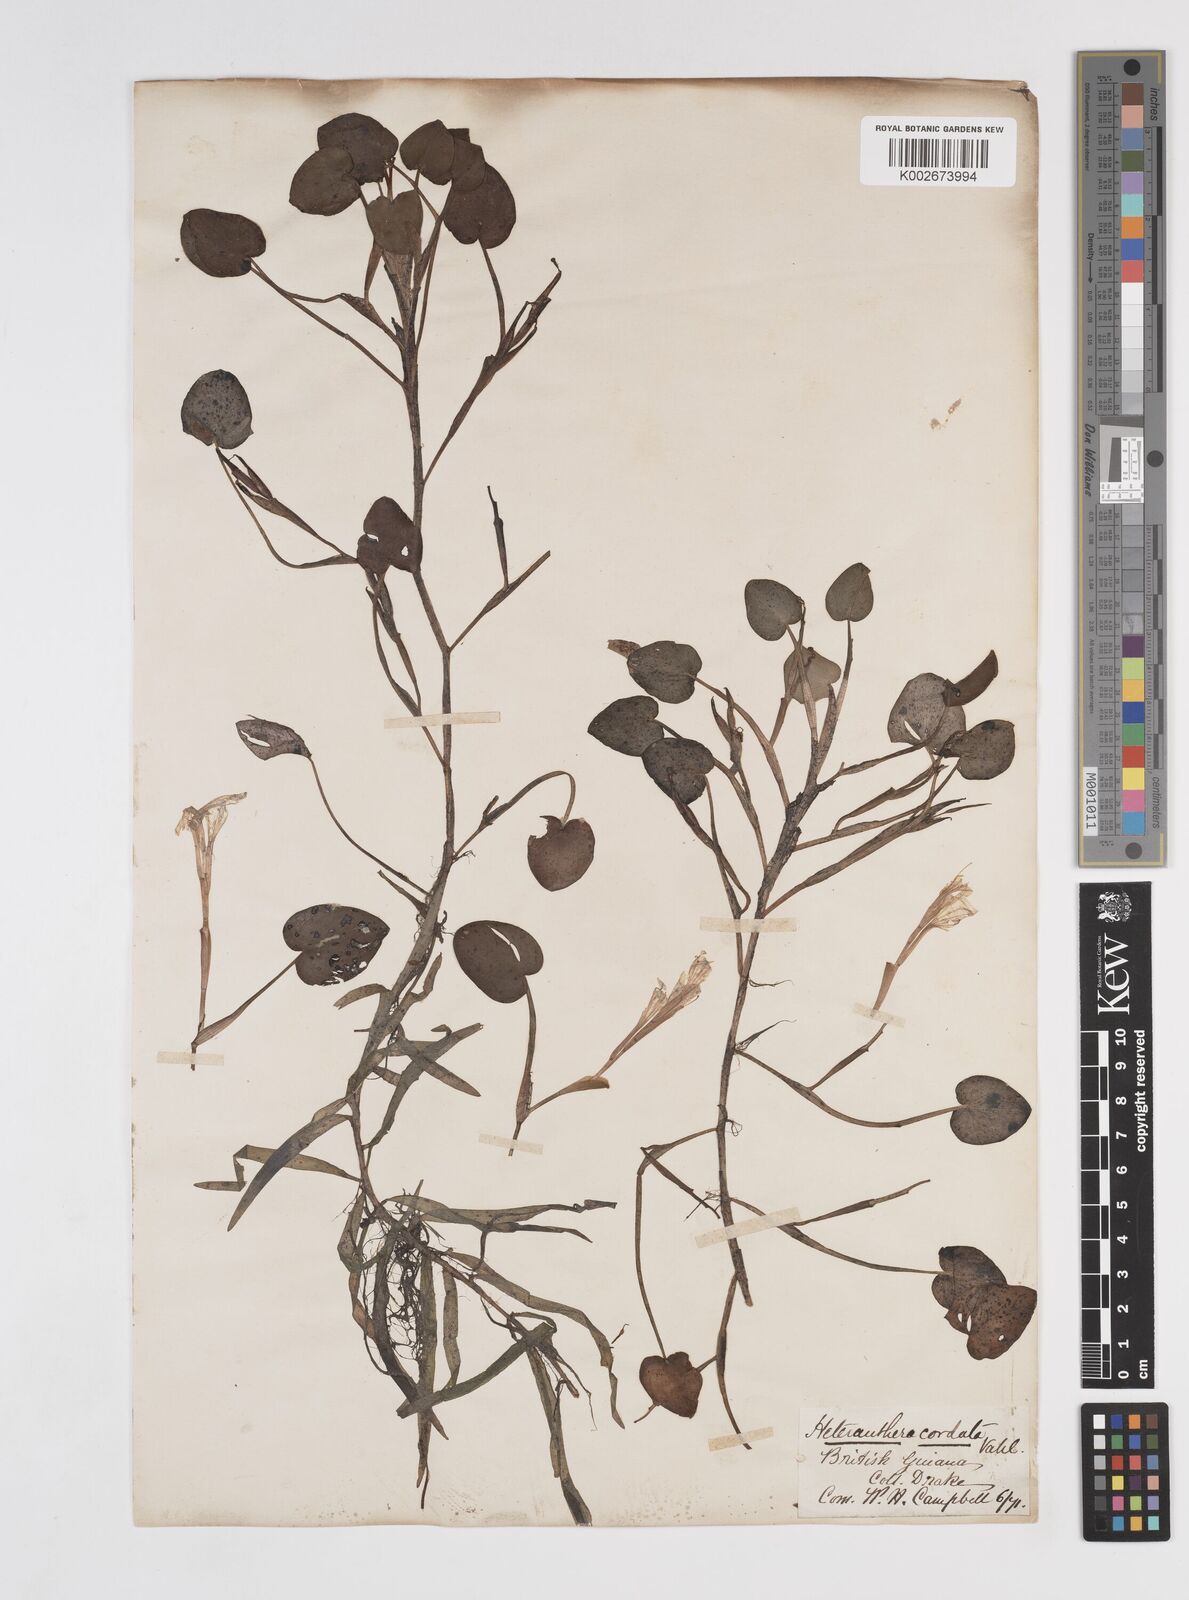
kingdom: Plantae
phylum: Tracheophyta
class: Liliopsida
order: Commelinales
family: Pontederiaceae
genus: Pontederia
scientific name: Pontederia diversifolia
